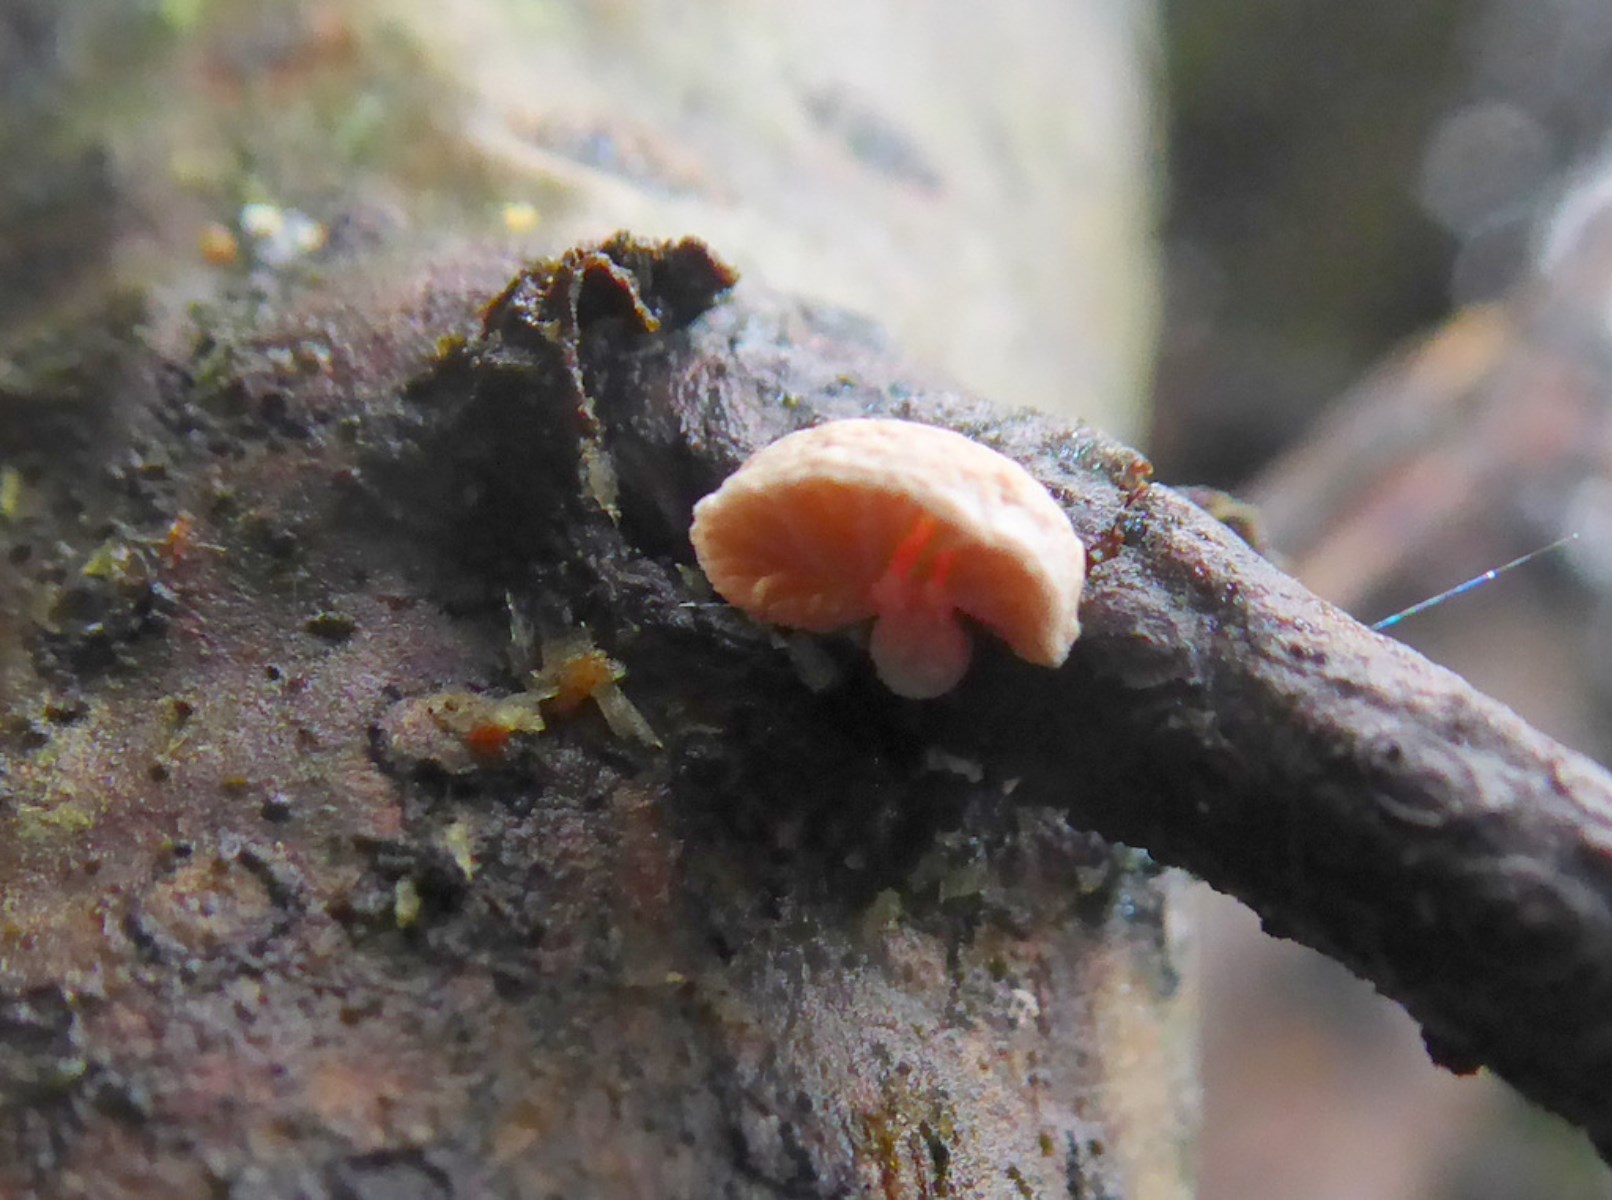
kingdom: Fungi
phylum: Basidiomycota
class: Agaricomycetes
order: Agaricales
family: Strophariaceae
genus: Deconica
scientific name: Deconica horizontalis
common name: ved-stråhat
